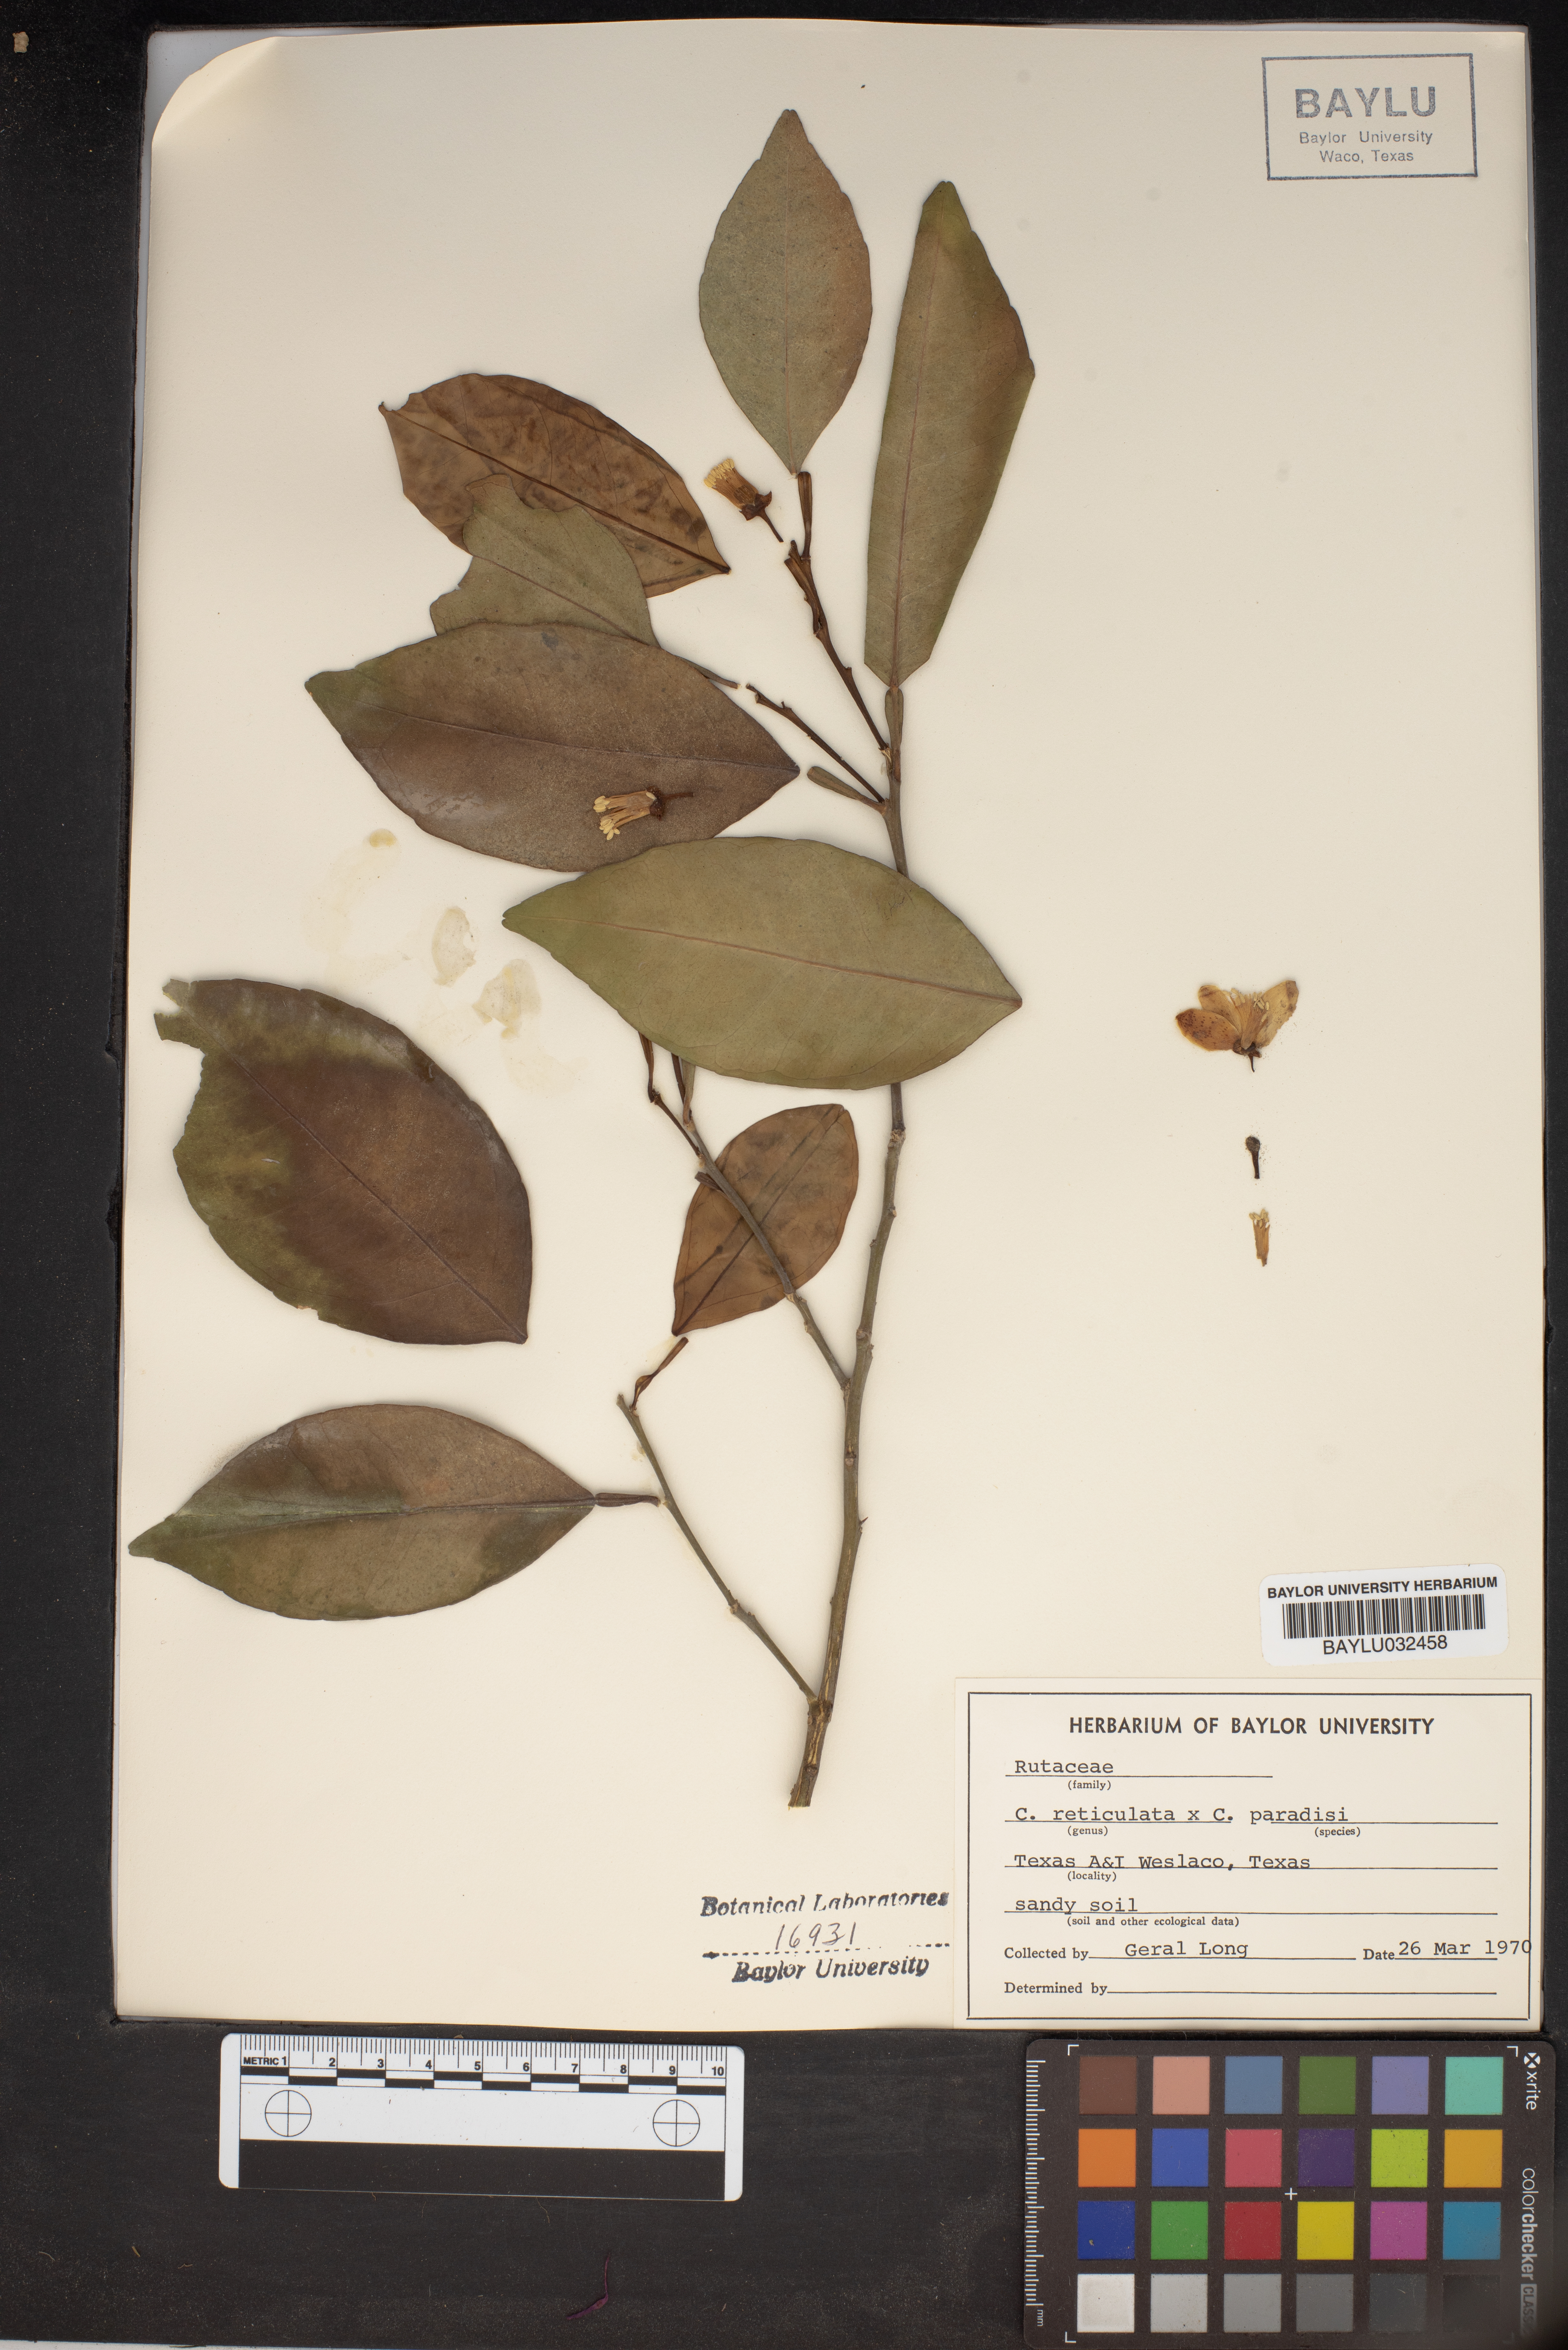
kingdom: Plantae
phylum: Tracheophyta
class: Magnoliopsida
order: Sapindales
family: Rutaceae
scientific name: Rutaceae
